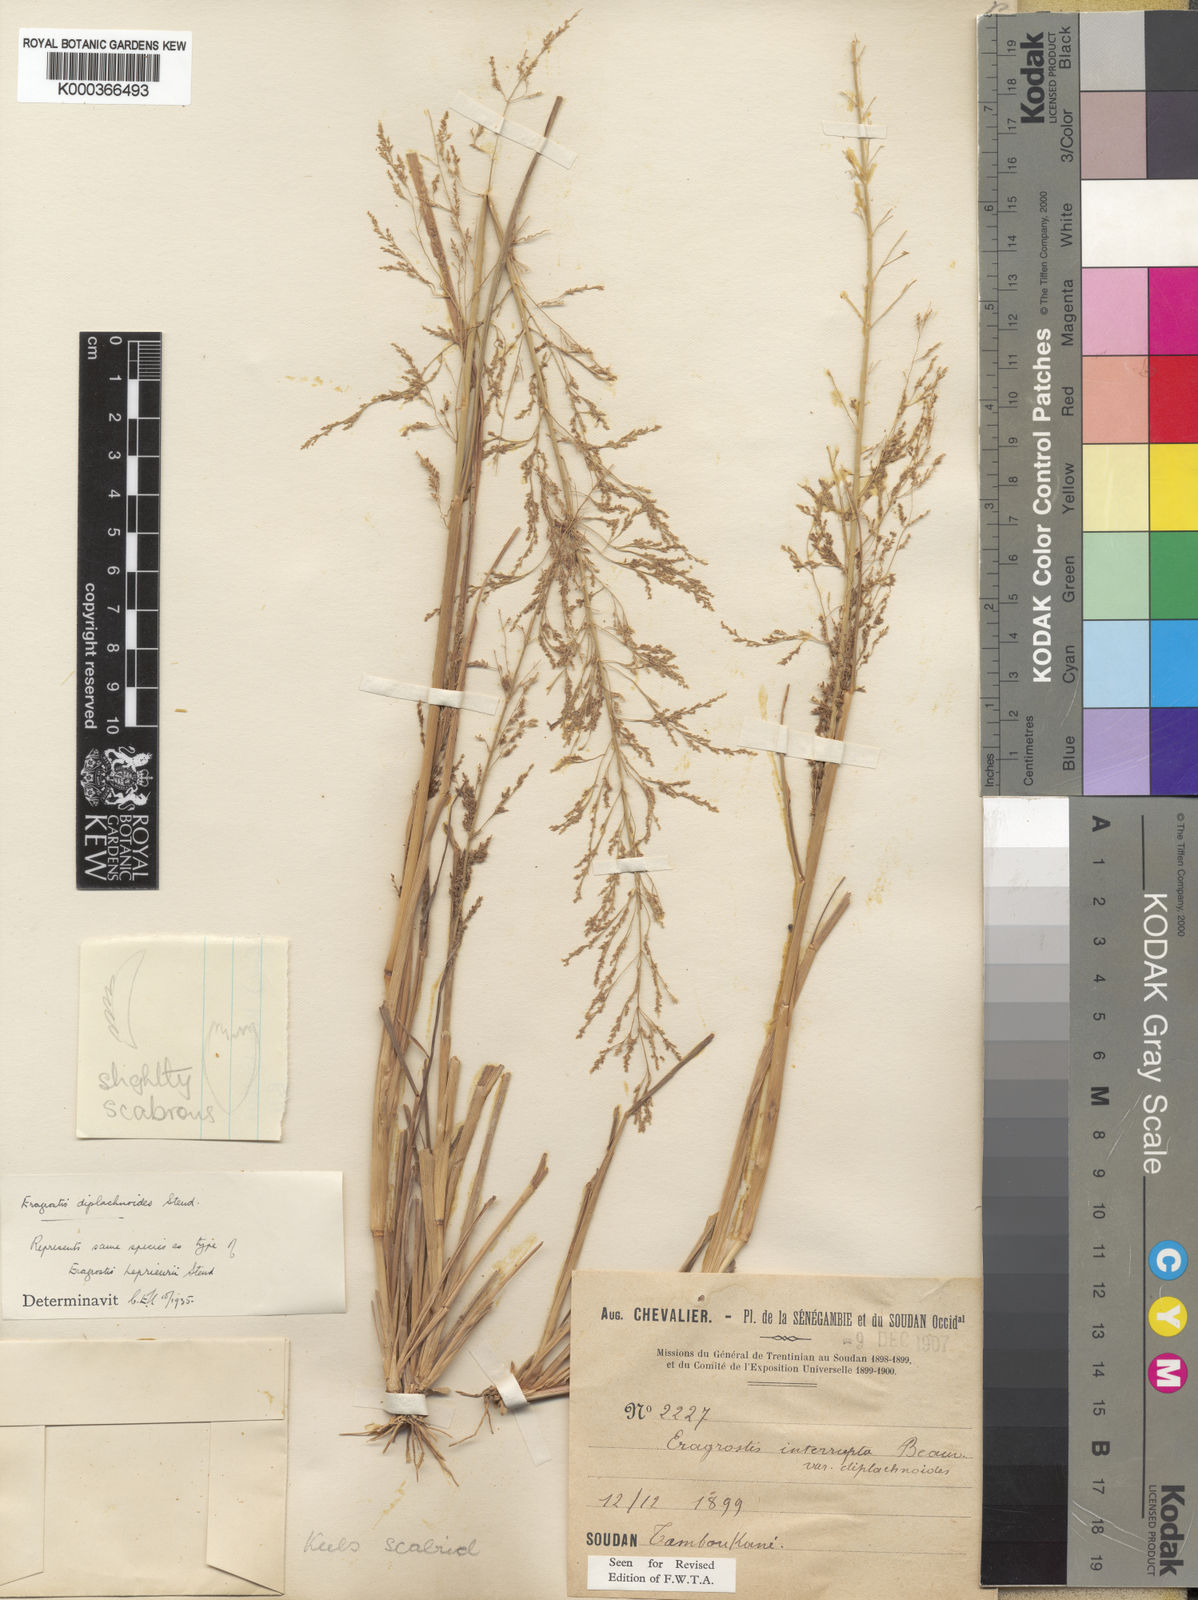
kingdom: Plantae
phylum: Tracheophyta
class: Liliopsida
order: Poales
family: Poaceae
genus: Eragrostis
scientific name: Eragrostis japonica
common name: Pond lovegrass
